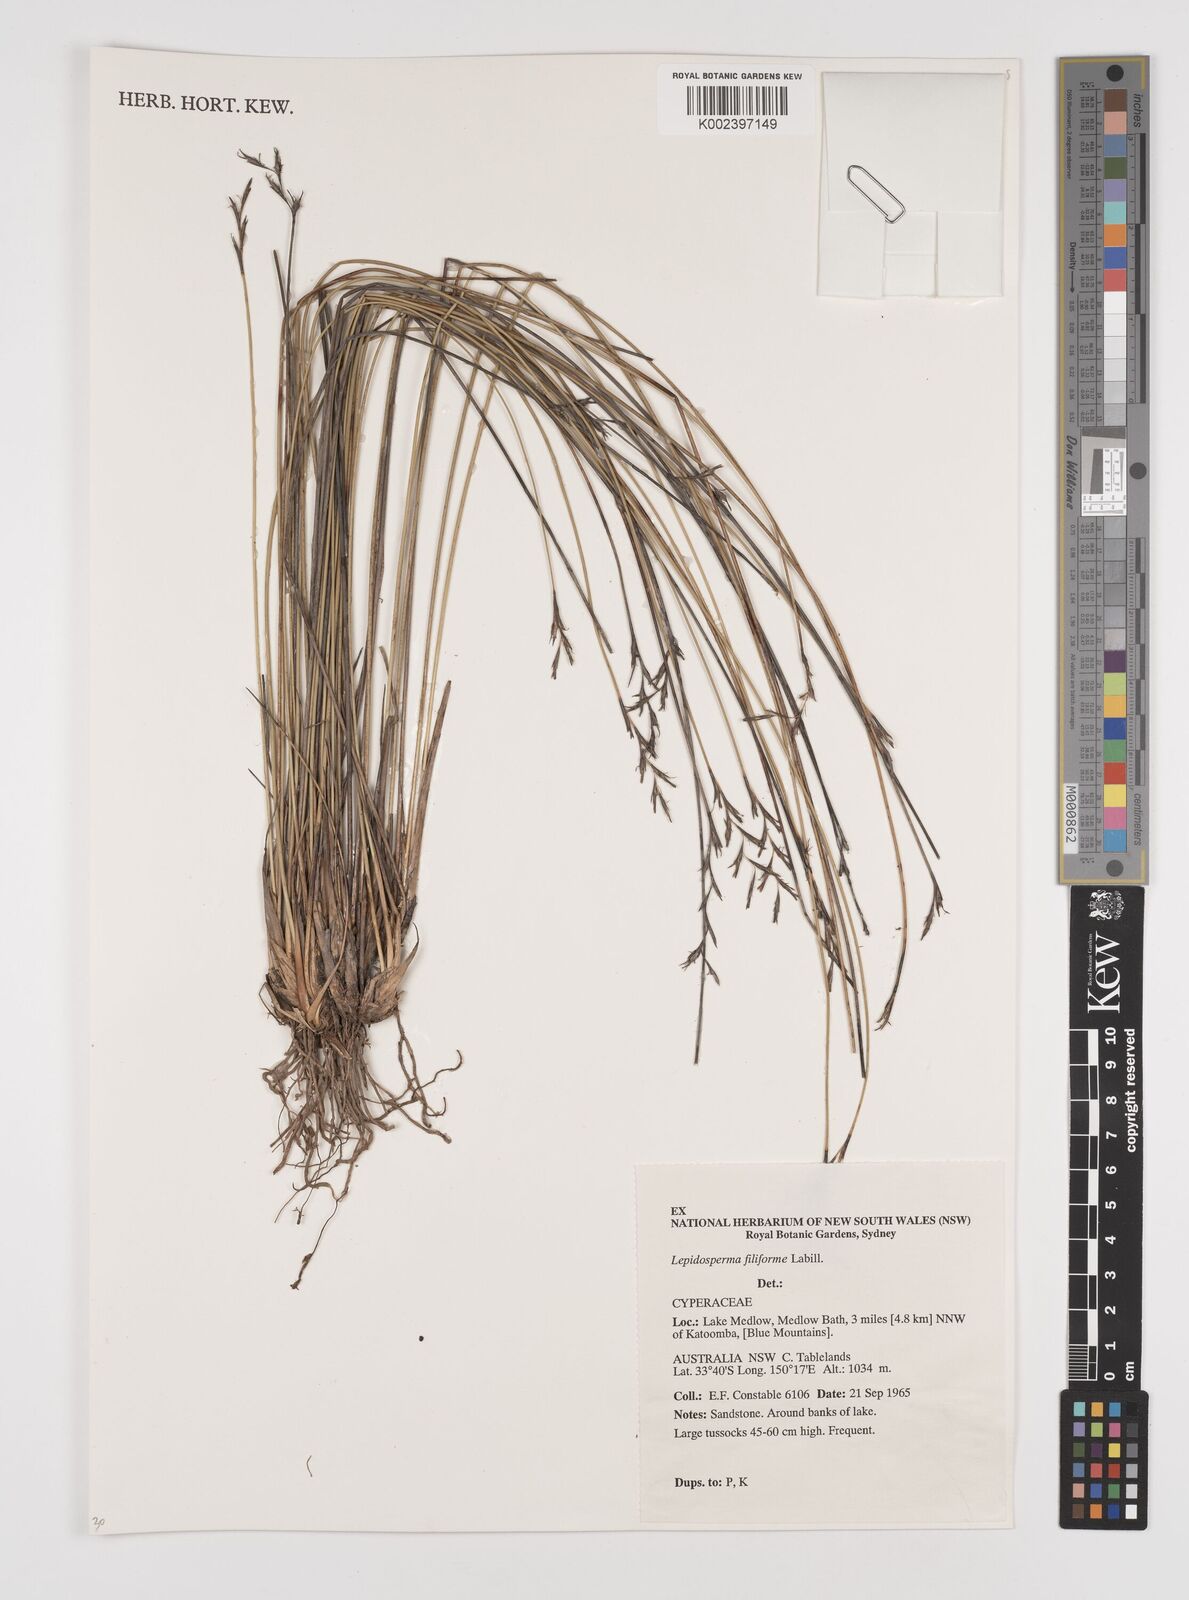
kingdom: Plantae
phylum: Tracheophyta
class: Liliopsida
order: Poales
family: Cyperaceae
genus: Lepidosperma
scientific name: Lepidosperma filiforme
